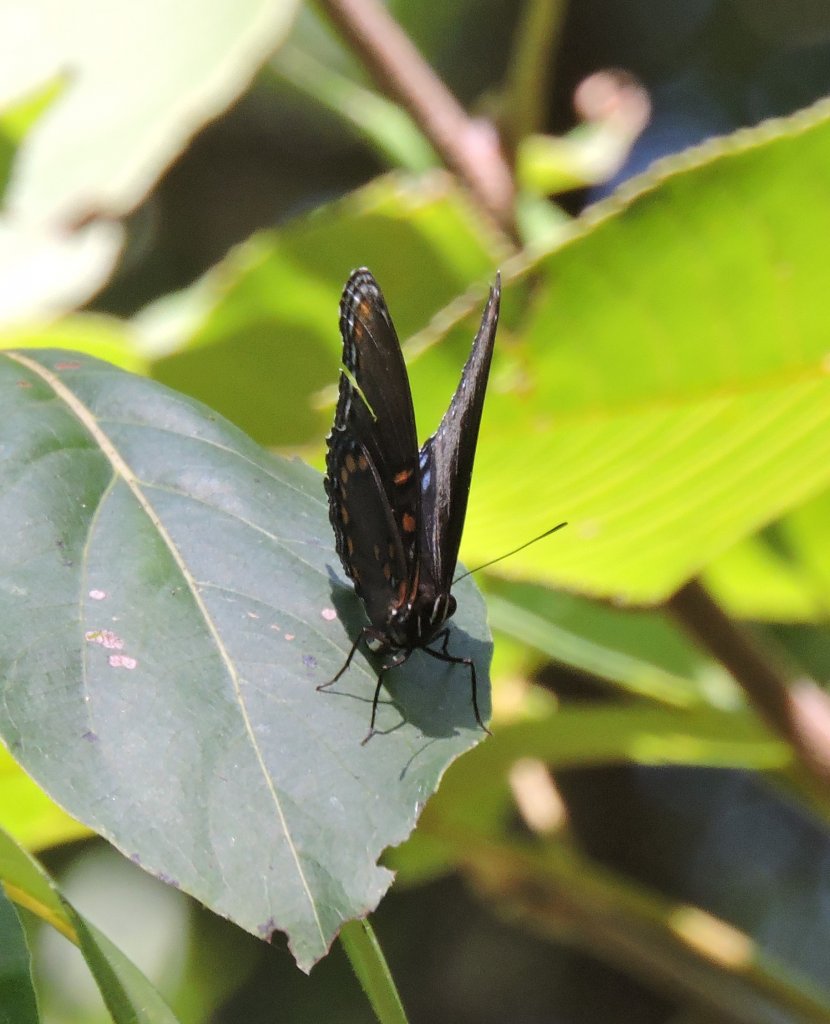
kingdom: Animalia
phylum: Arthropoda
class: Insecta
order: Lepidoptera
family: Nymphalidae
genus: Limenitis
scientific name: Limenitis astyanax
